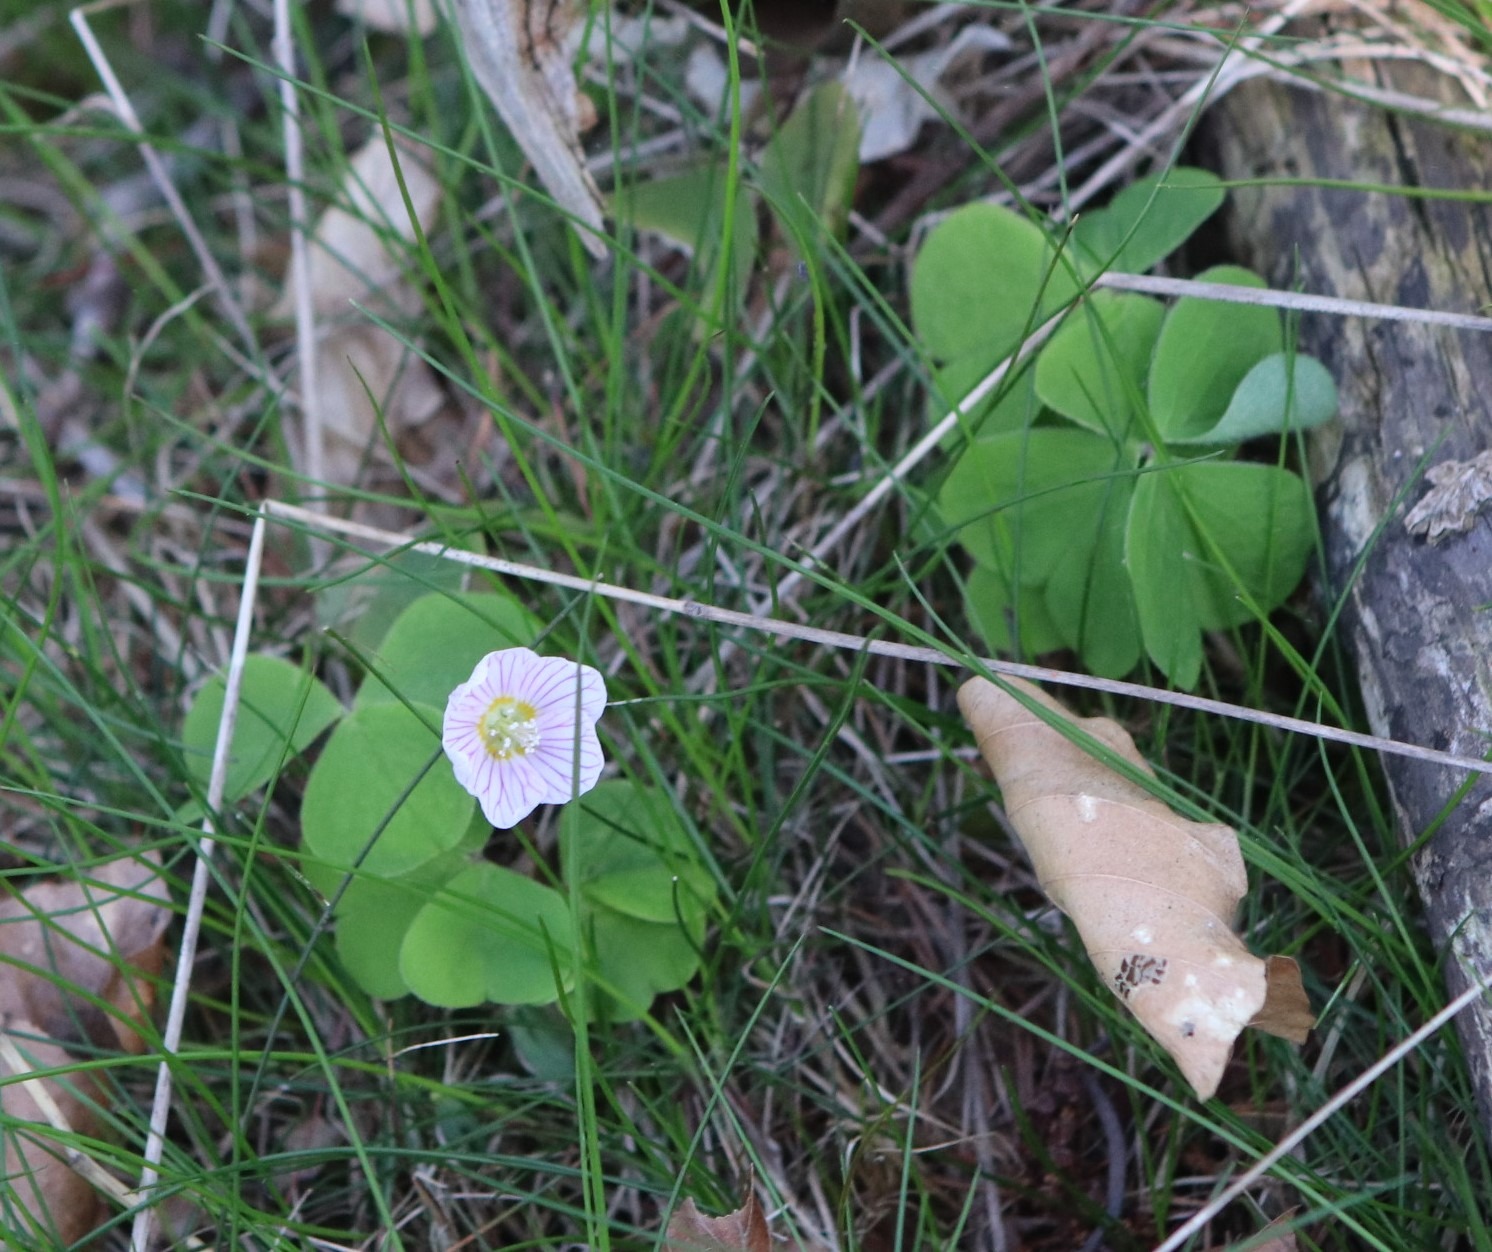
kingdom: Plantae
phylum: Tracheophyta
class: Magnoliopsida
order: Oxalidales
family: Oxalidaceae
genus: Oxalis
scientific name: Oxalis acetosella
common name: Skovsyre
